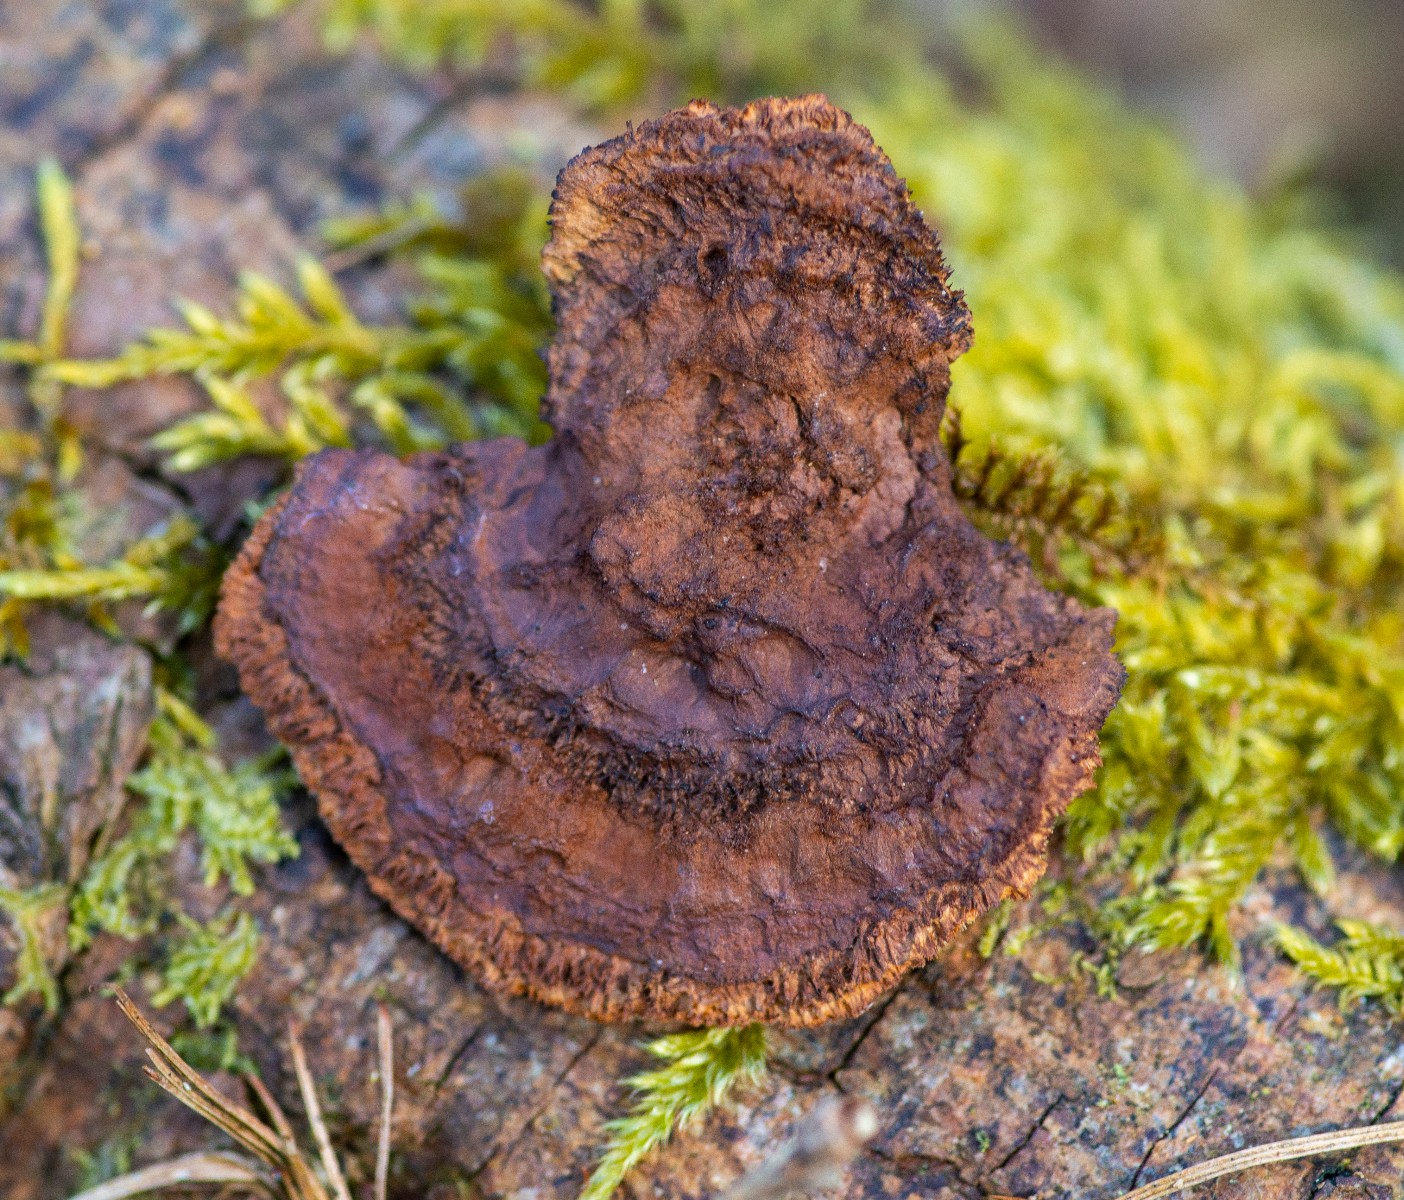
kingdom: Fungi
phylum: Basidiomycota
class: Agaricomycetes
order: Gloeophyllales
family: Gloeophyllaceae
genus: Gloeophyllum
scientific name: Gloeophyllum sepiarium
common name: fyrre-korkhat
